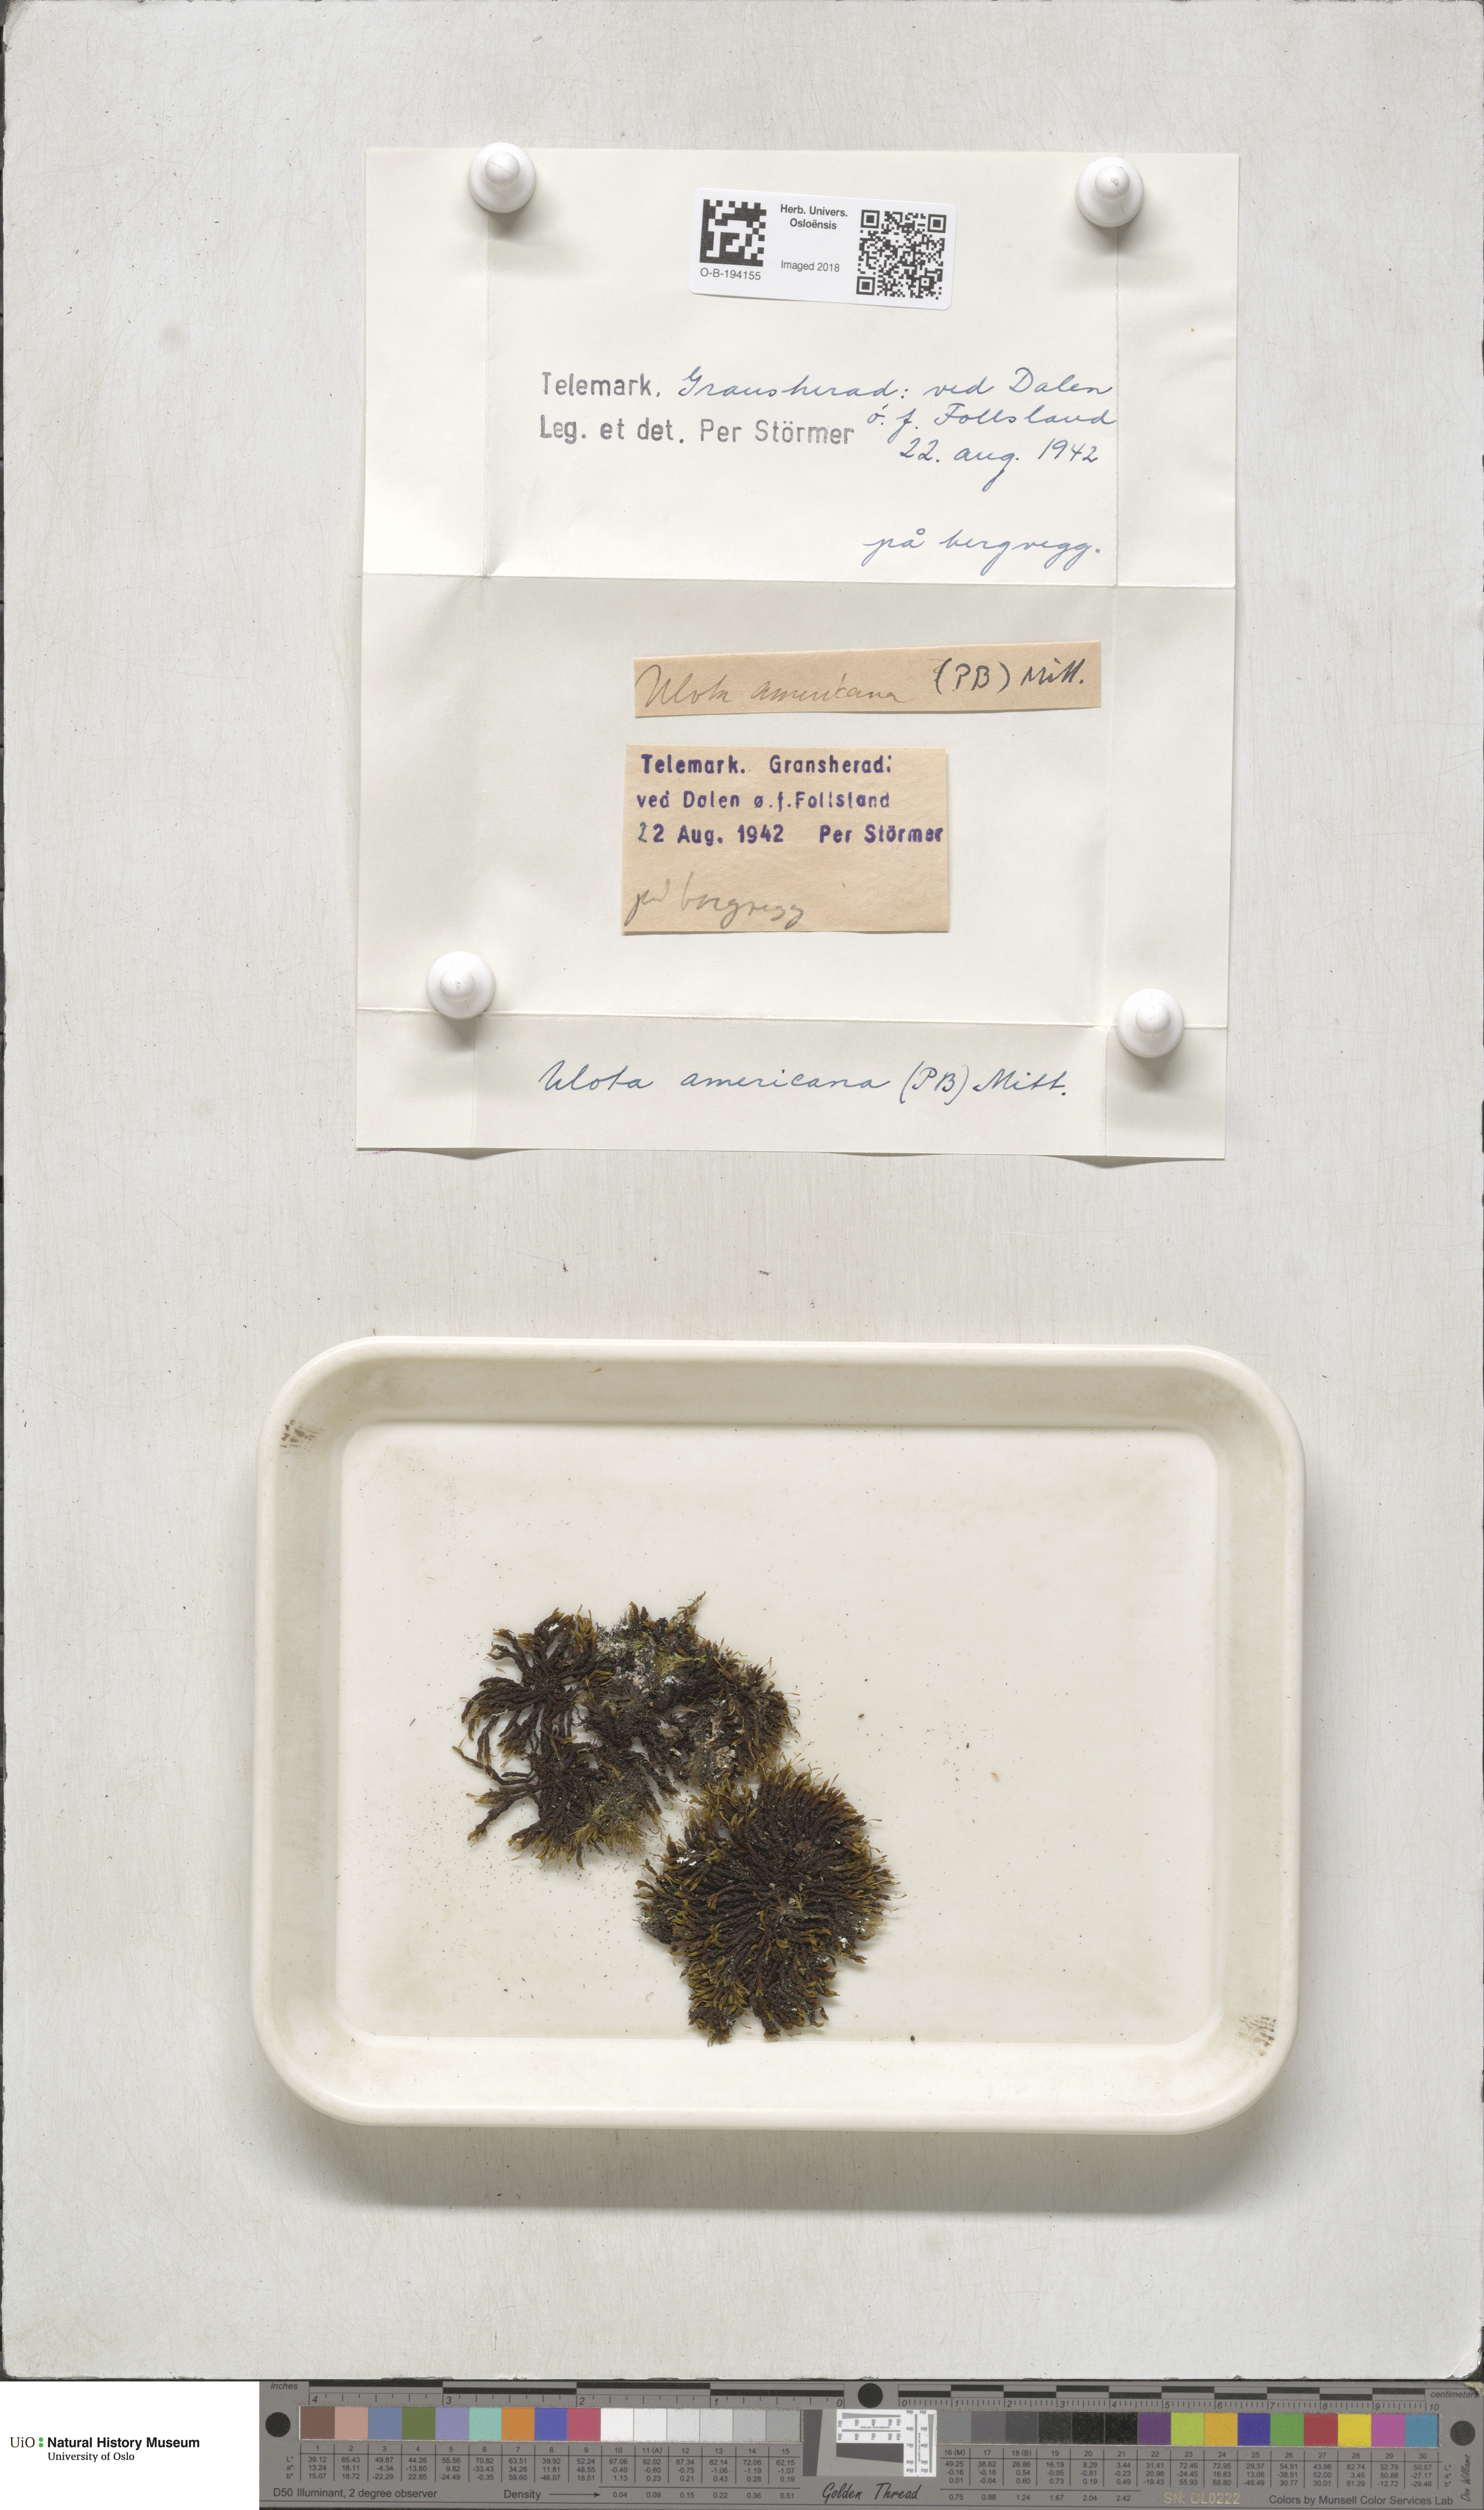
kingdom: Plantae
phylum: Bryophyta
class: Bryopsida
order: Orthotrichales
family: Orthotrichaceae
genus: Ulota
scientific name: Ulota hutchinsiae
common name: Hutchins' pincushion
